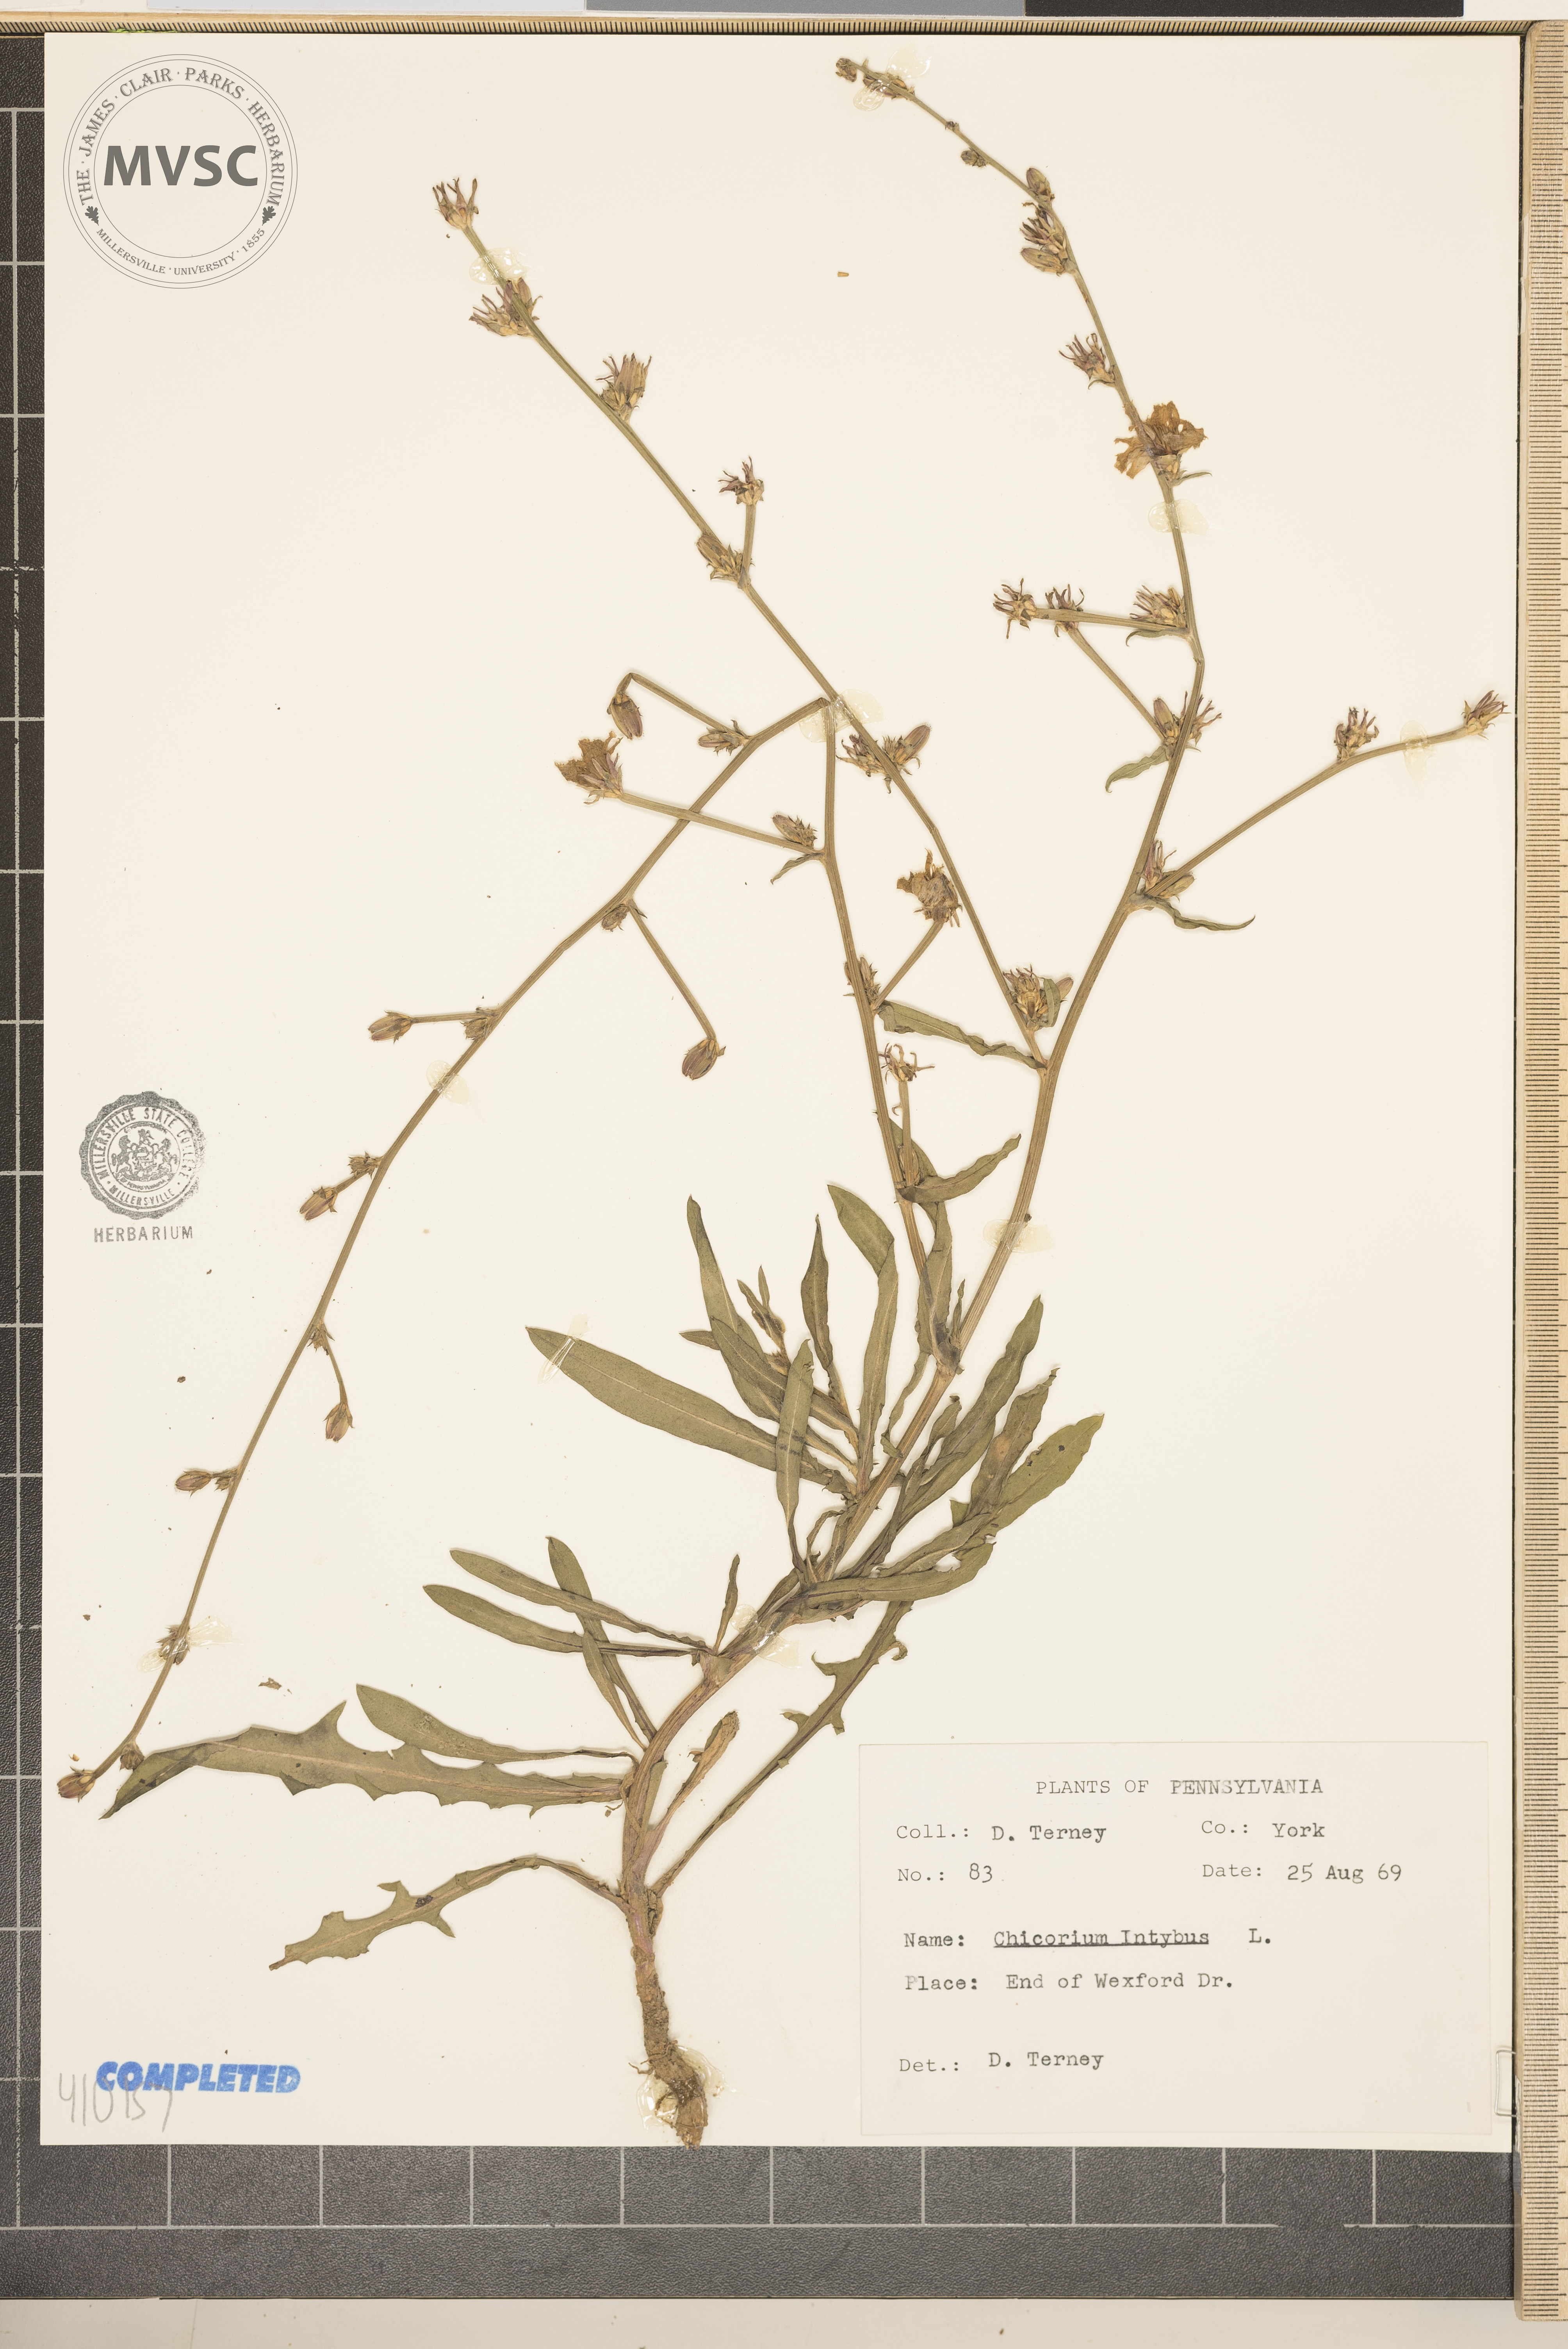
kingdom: Plantae
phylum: Tracheophyta
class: Magnoliopsida
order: Asterales
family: Asteraceae
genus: Cichorium
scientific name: Cichorium intybus
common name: Chicory
